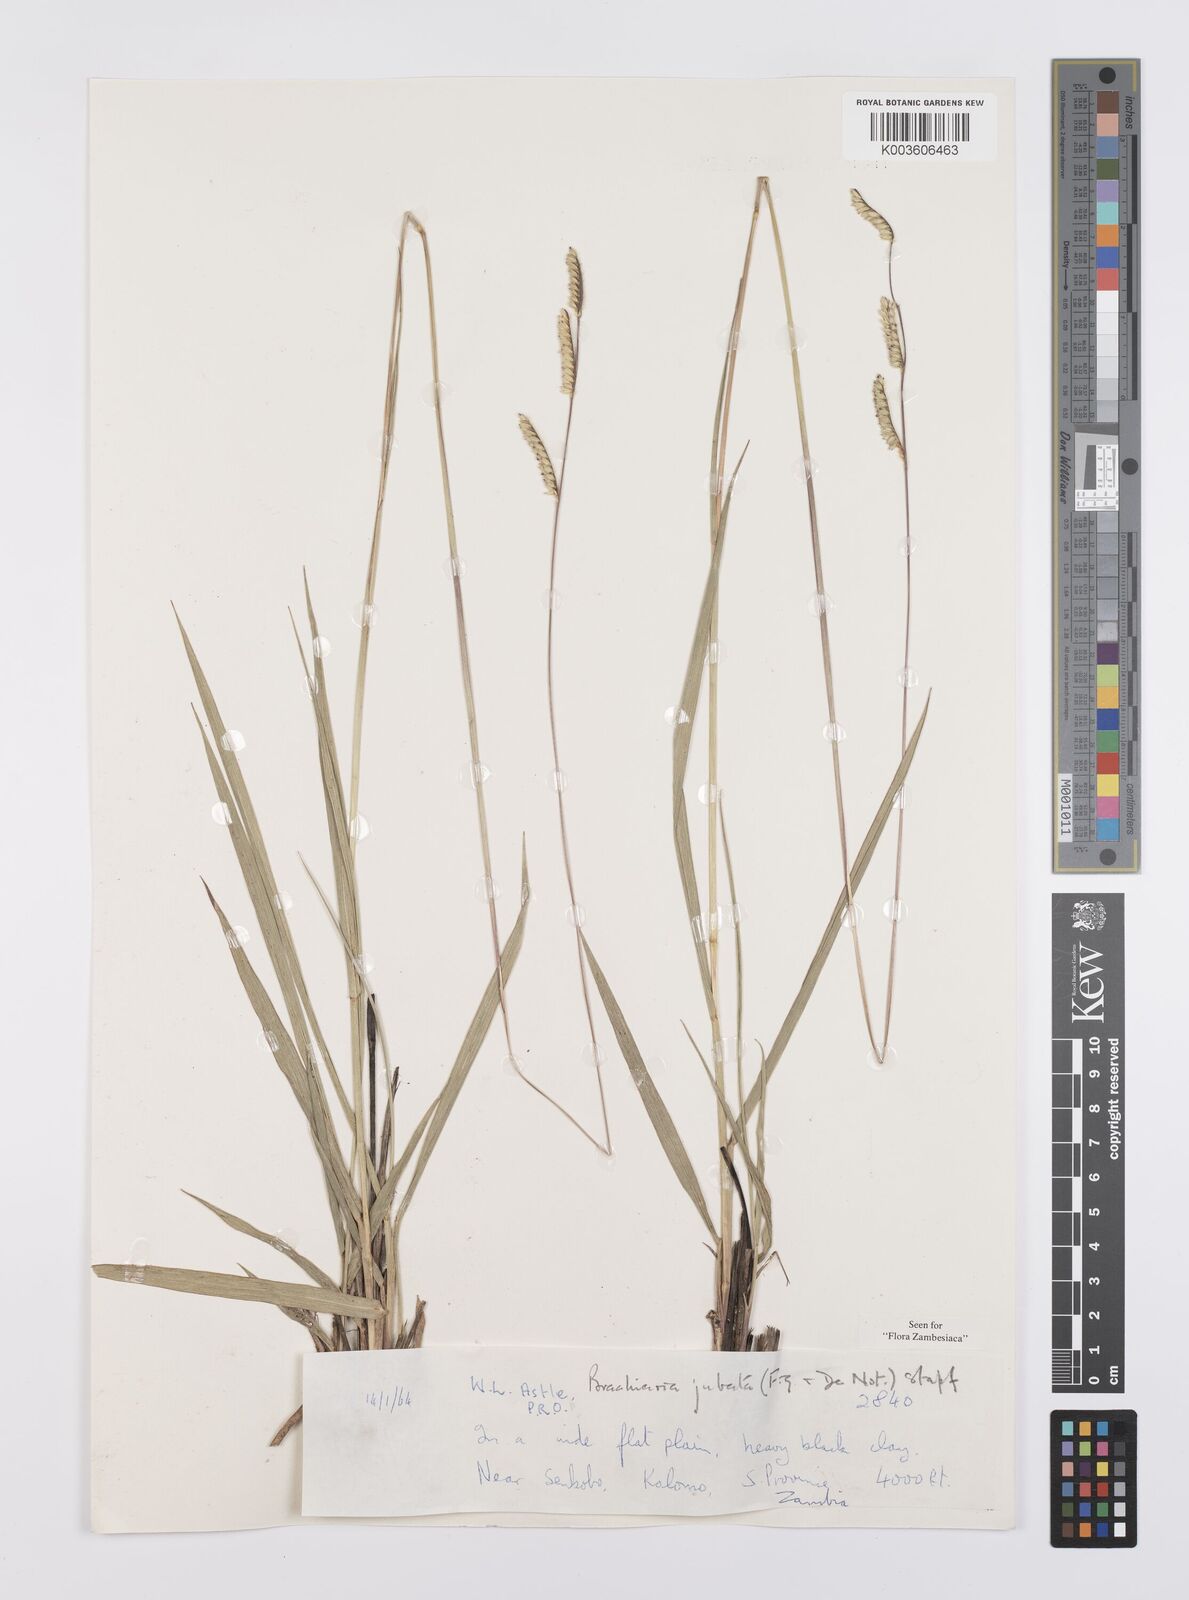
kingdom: Plantae
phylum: Tracheophyta
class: Liliopsida
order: Poales
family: Poaceae
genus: Urochloa
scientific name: Urochloa jubata
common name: Buffalograss
